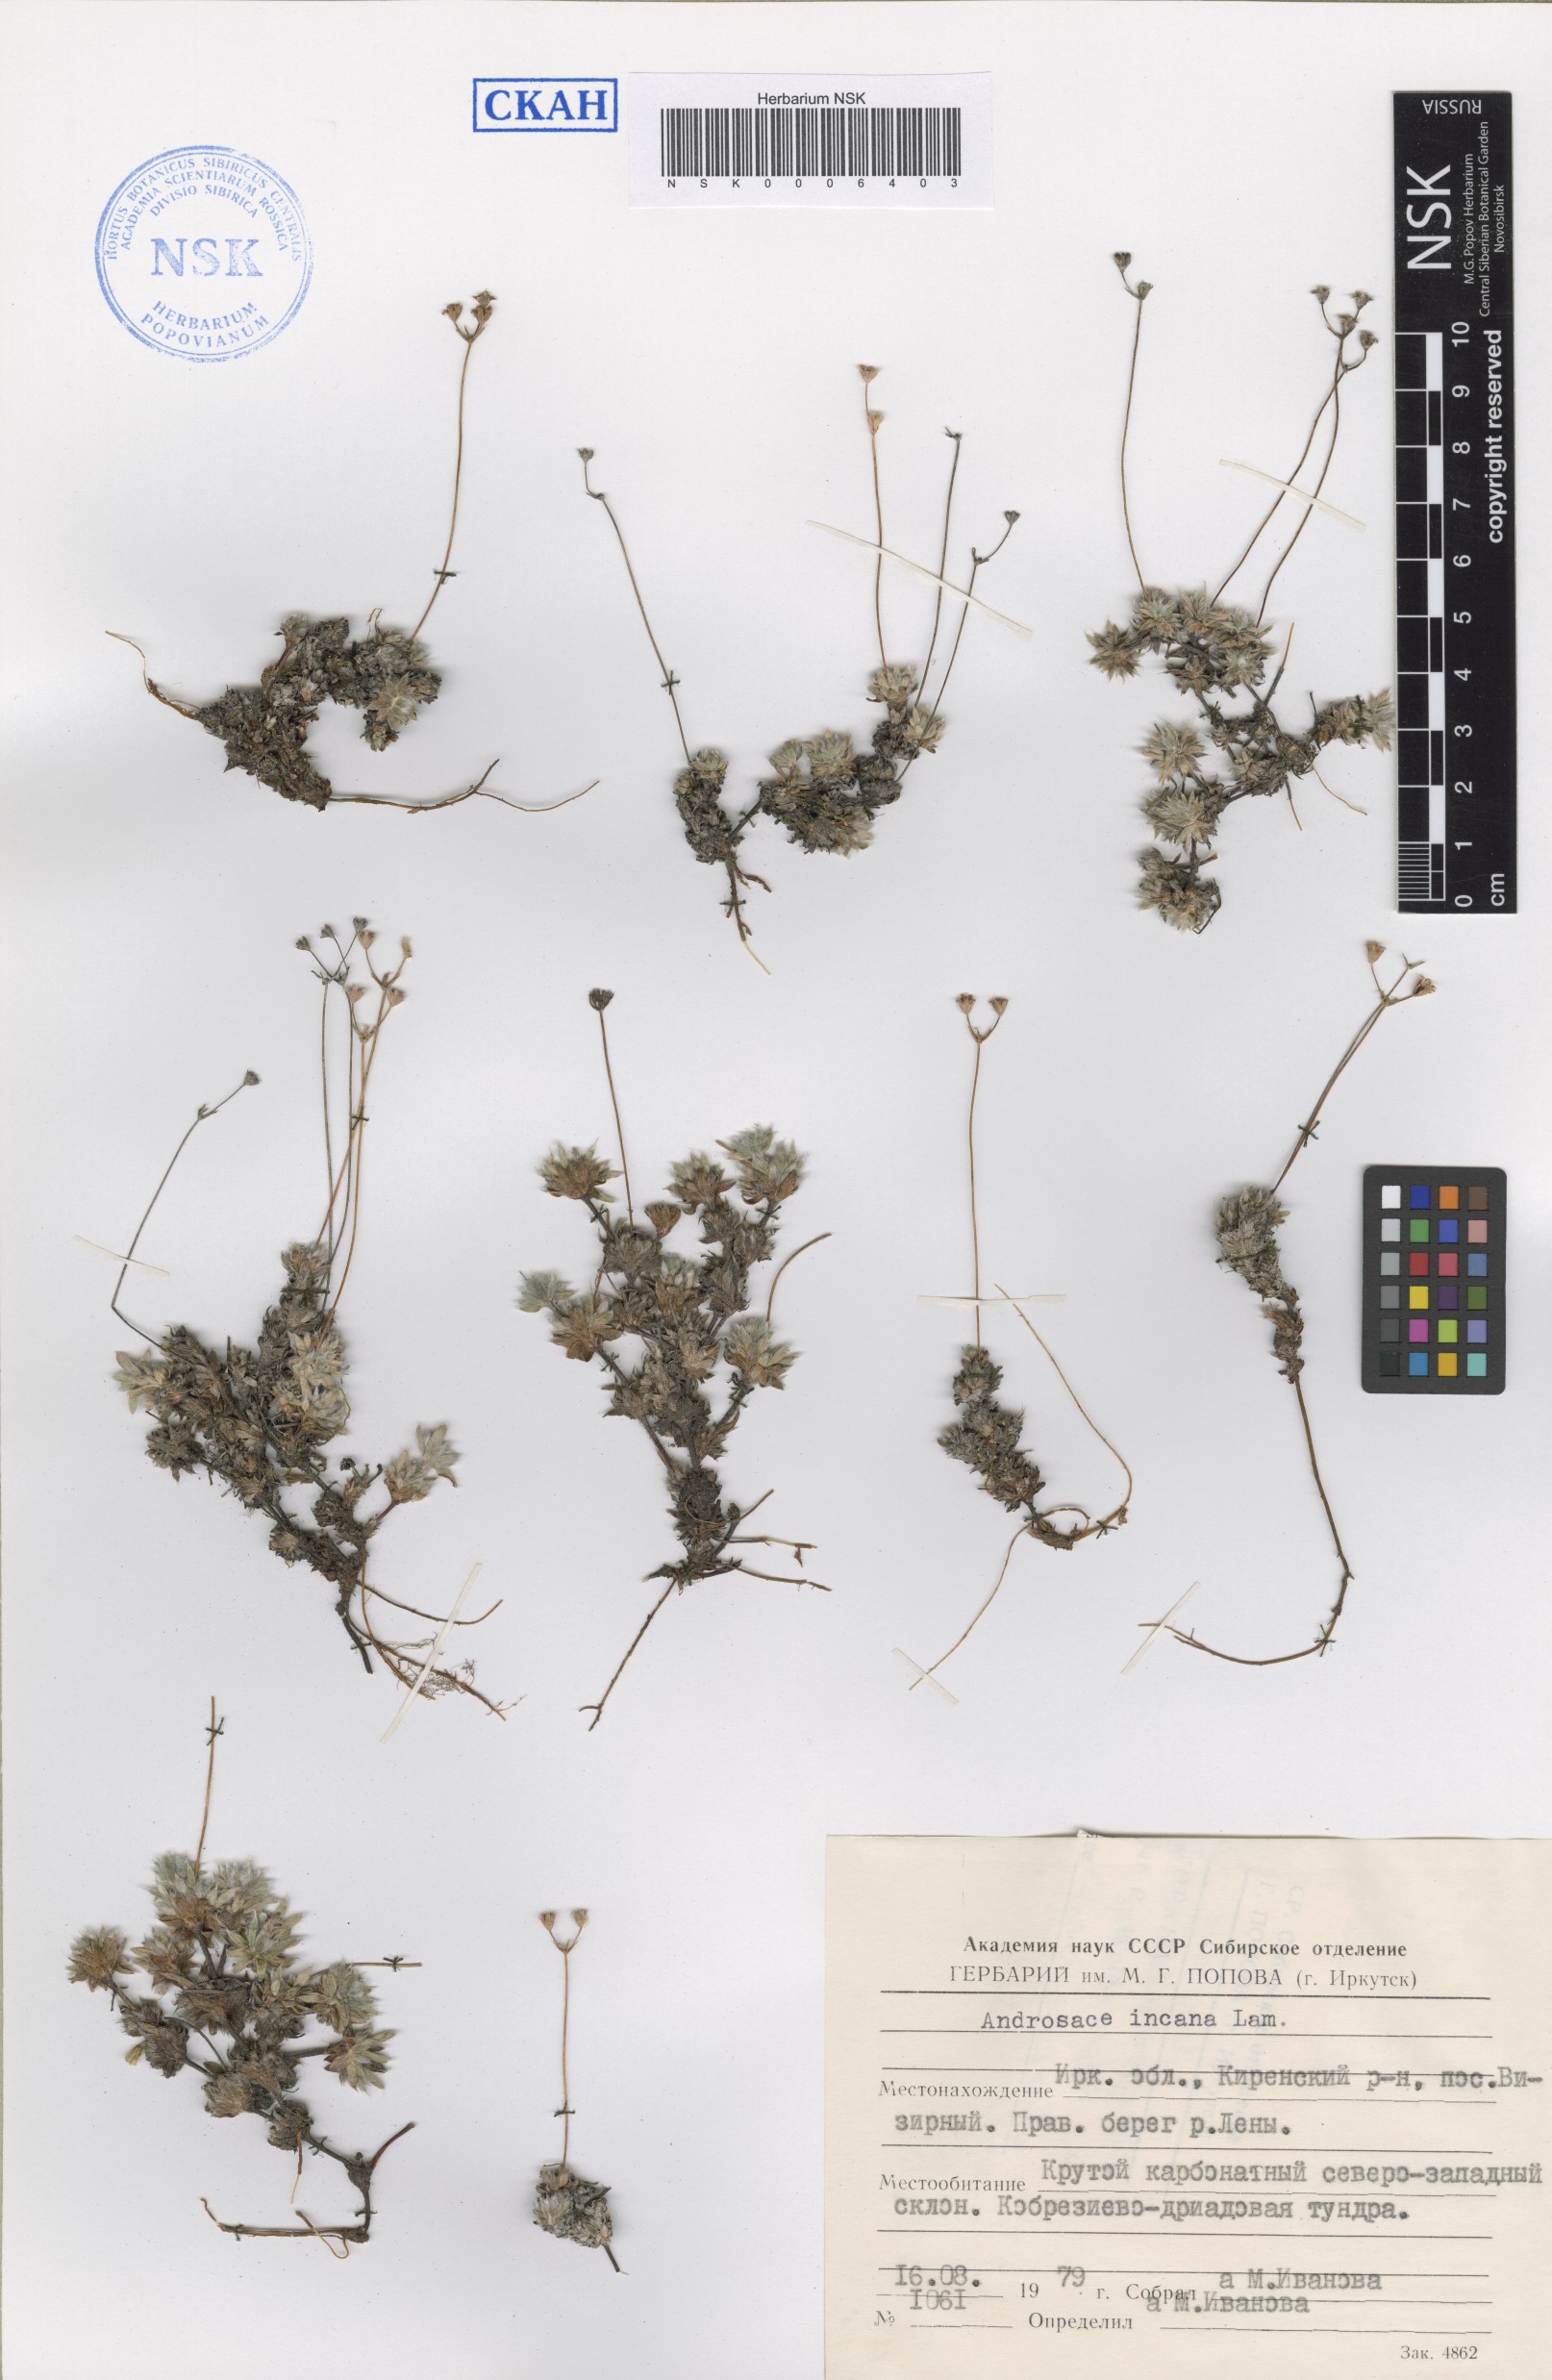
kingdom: Plantae
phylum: Tracheophyta
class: Magnoliopsida
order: Ericales
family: Primulaceae
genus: Androsace
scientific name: Androsace incana
